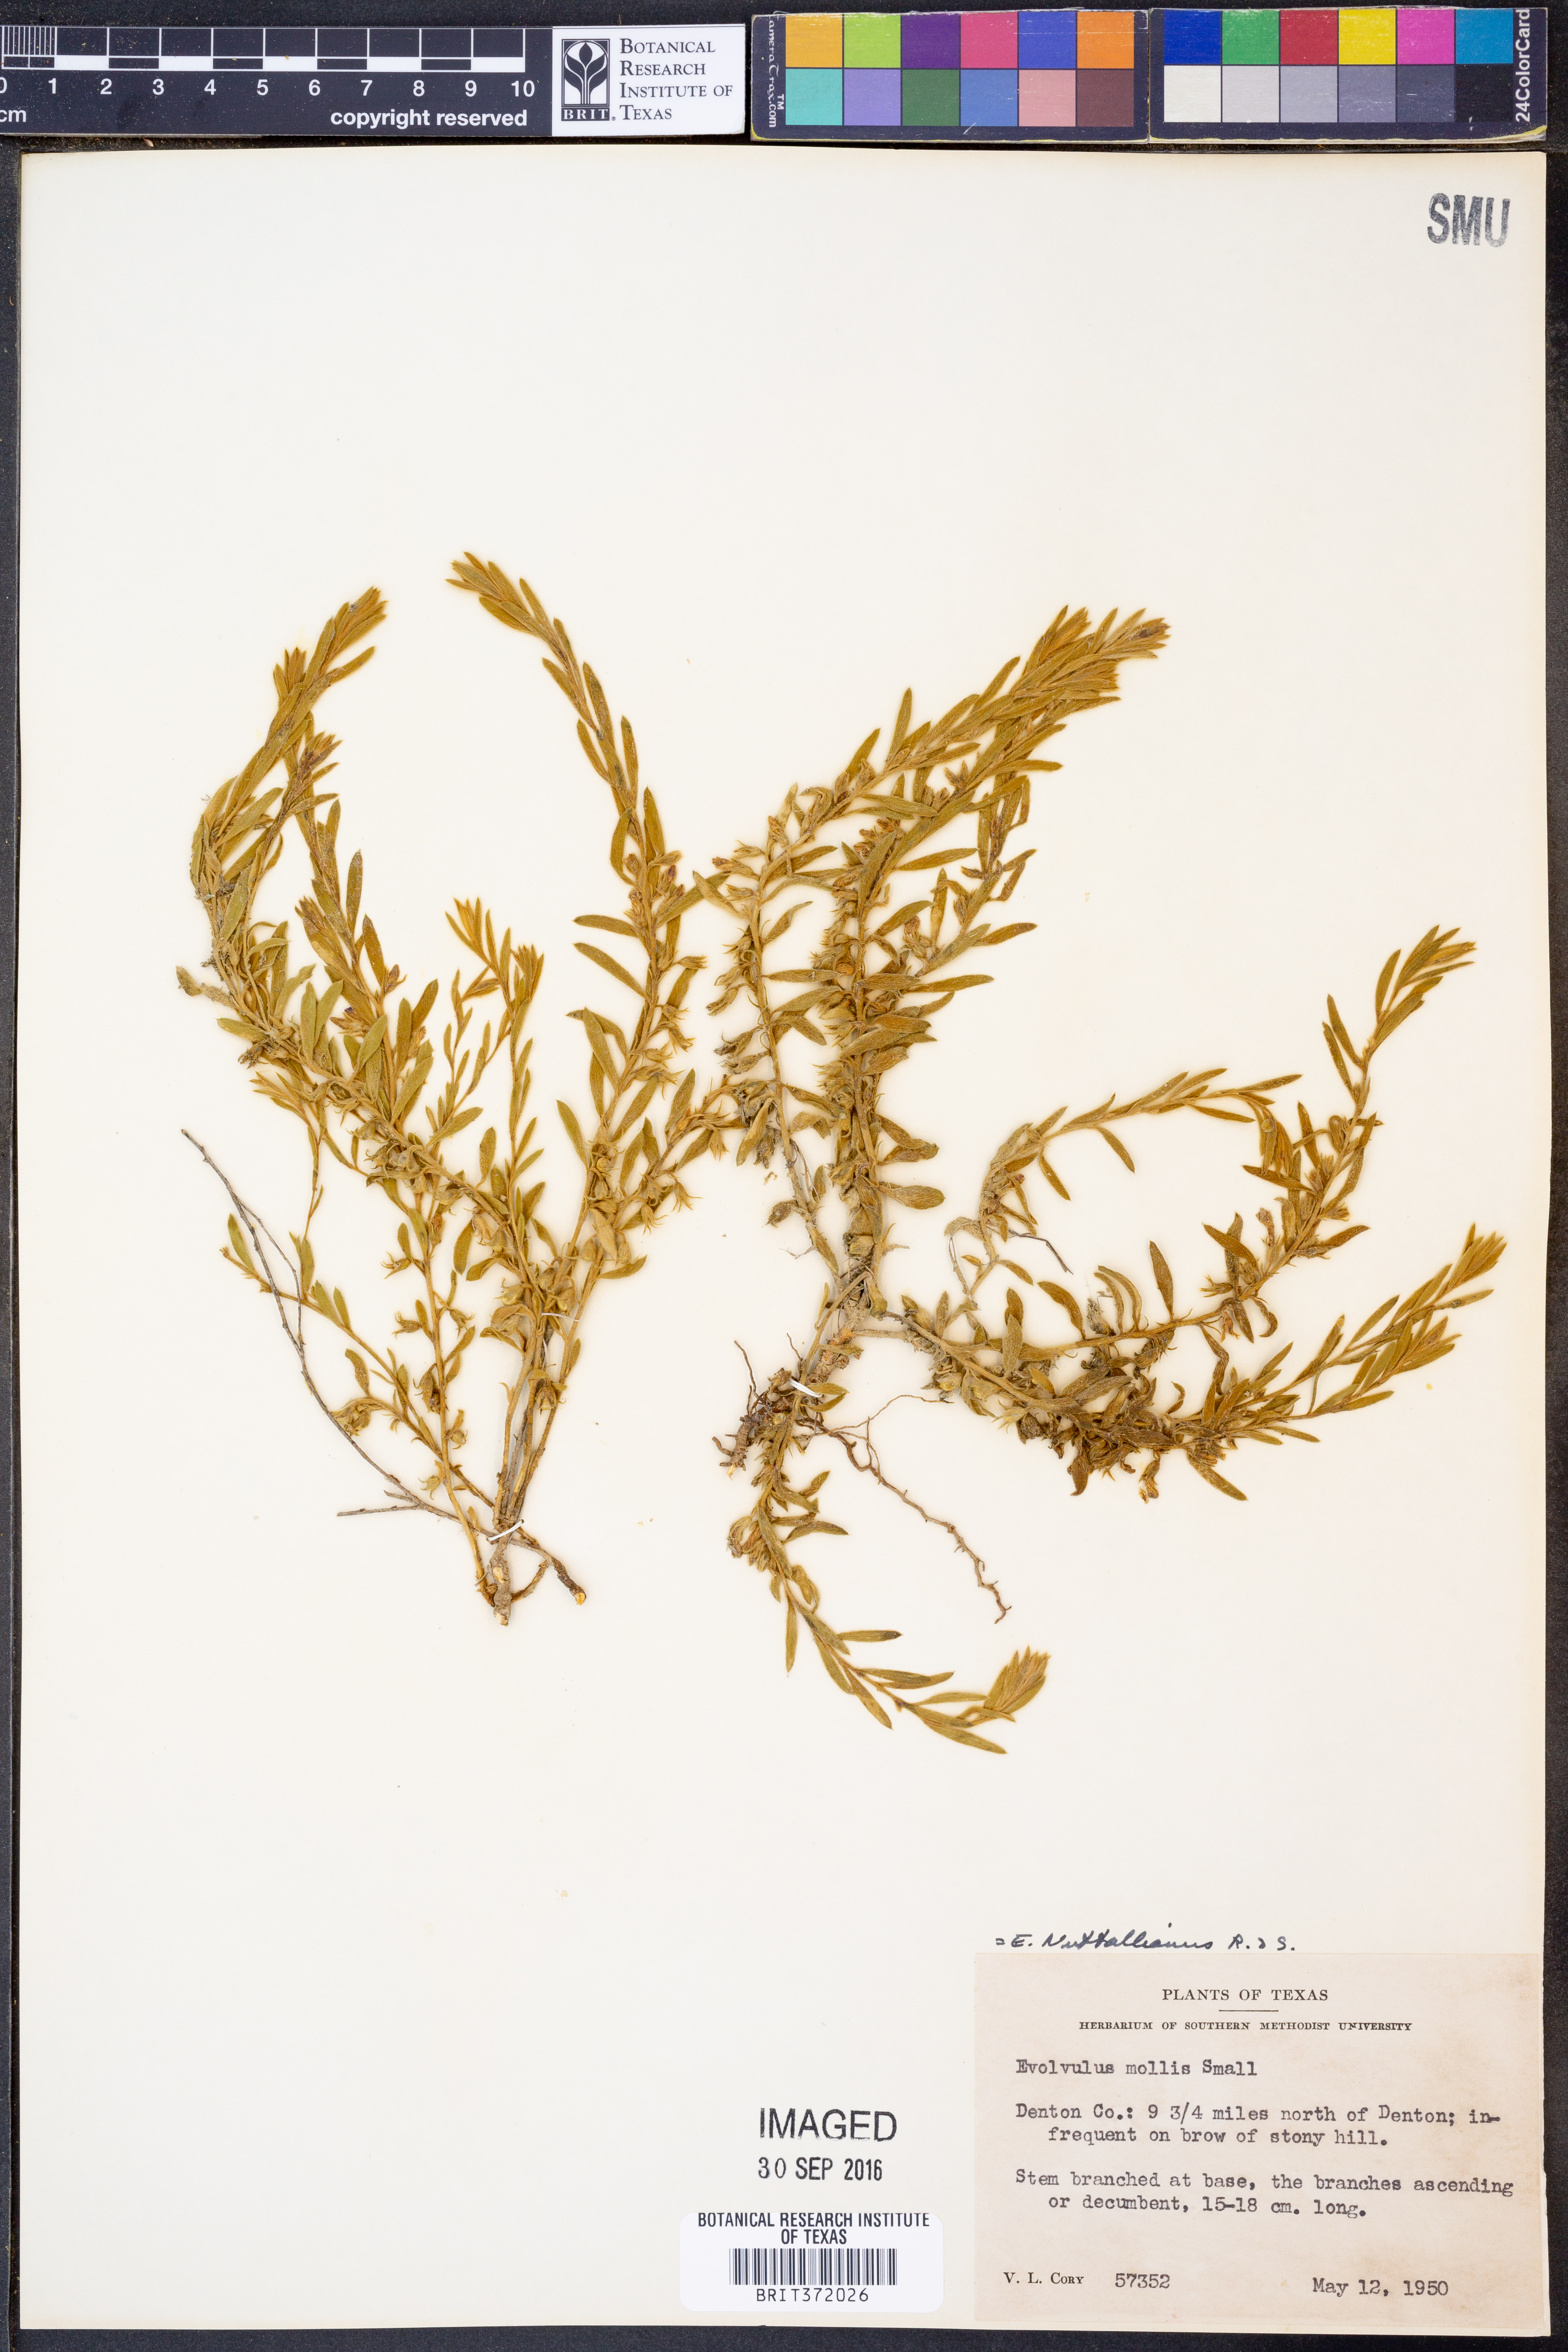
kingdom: Plantae
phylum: Tracheophyta
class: Magnoliopsida
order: Solanales
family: Convolvulaceae
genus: Evolvulus
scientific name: Evolvulus nuttallianus
